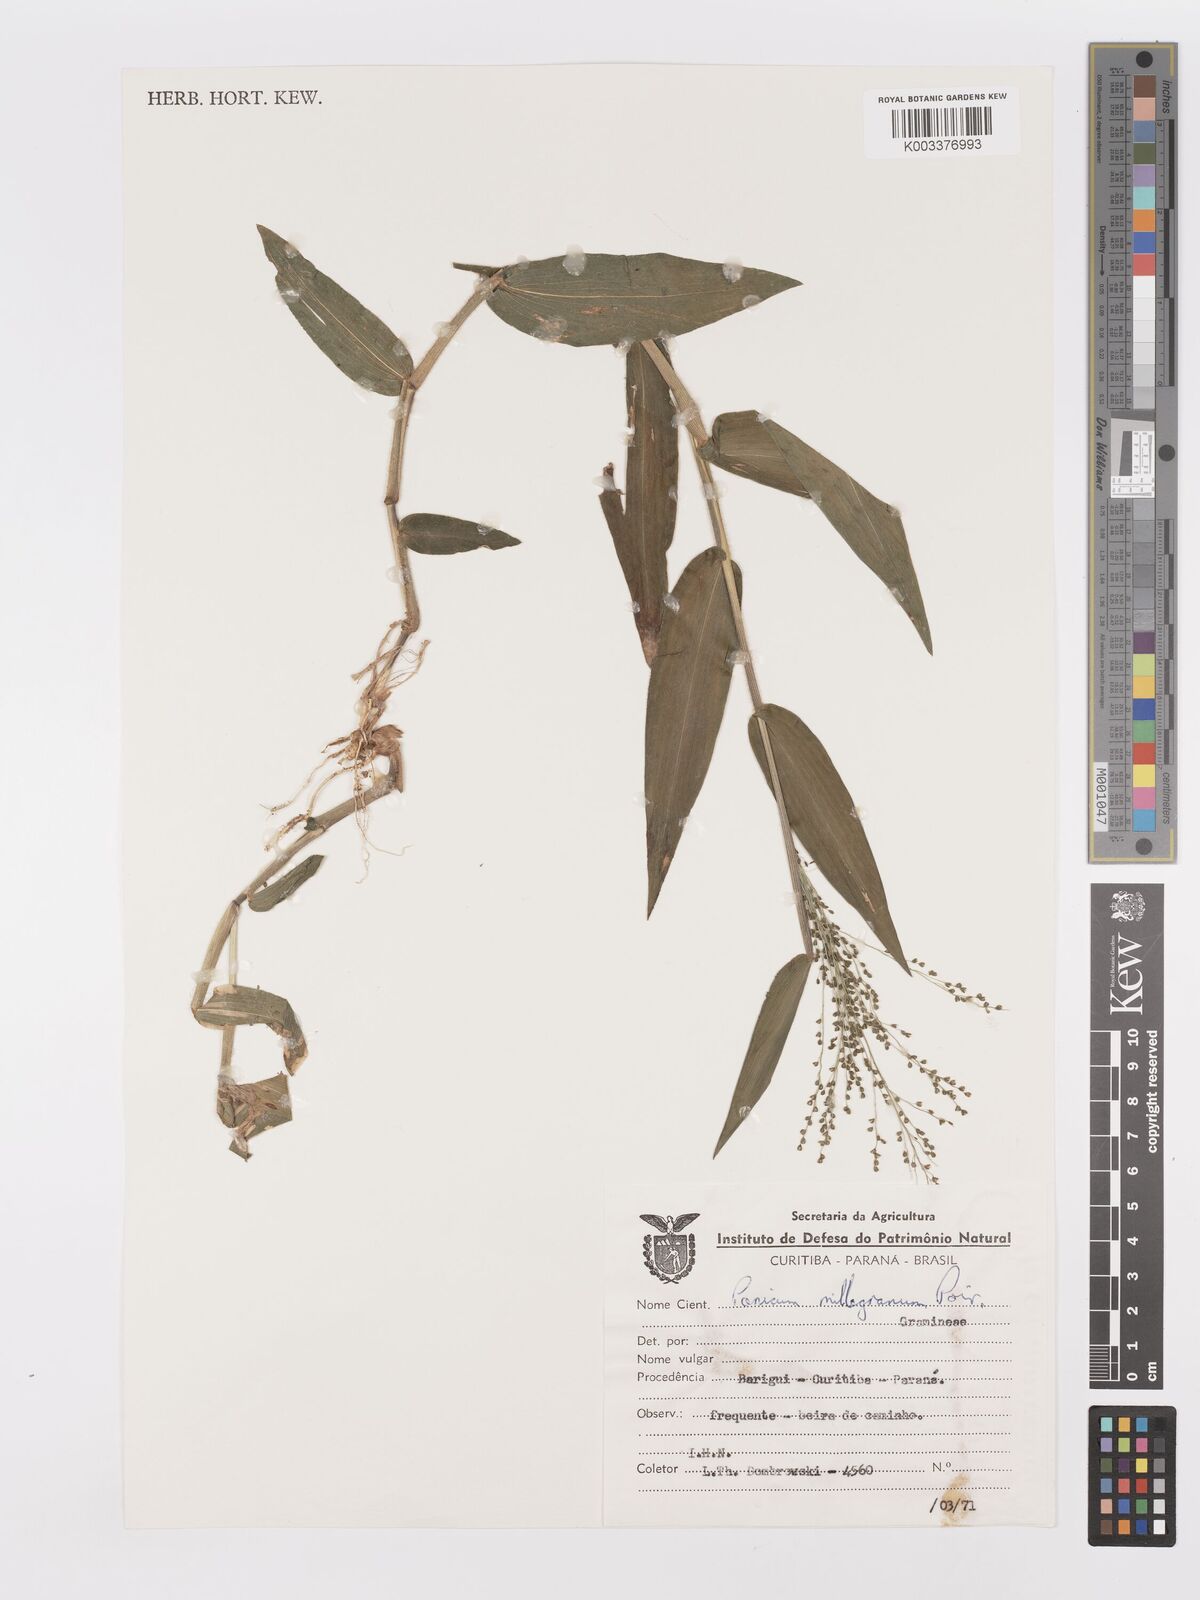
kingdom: Plantae
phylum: Tracheophyta
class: Liliopsida
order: Poales
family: Poaceae
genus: Panicum
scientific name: Panicum millegrana
